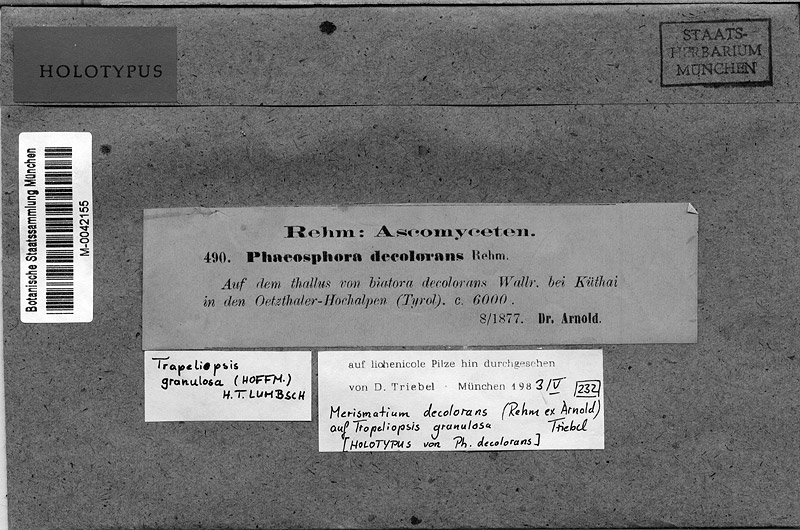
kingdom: Fungi
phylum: Ascomycota
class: Eurotiomycetes
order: Verrucariales
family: Verrucariaceae
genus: Merismatium
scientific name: Merismatium decolorans
